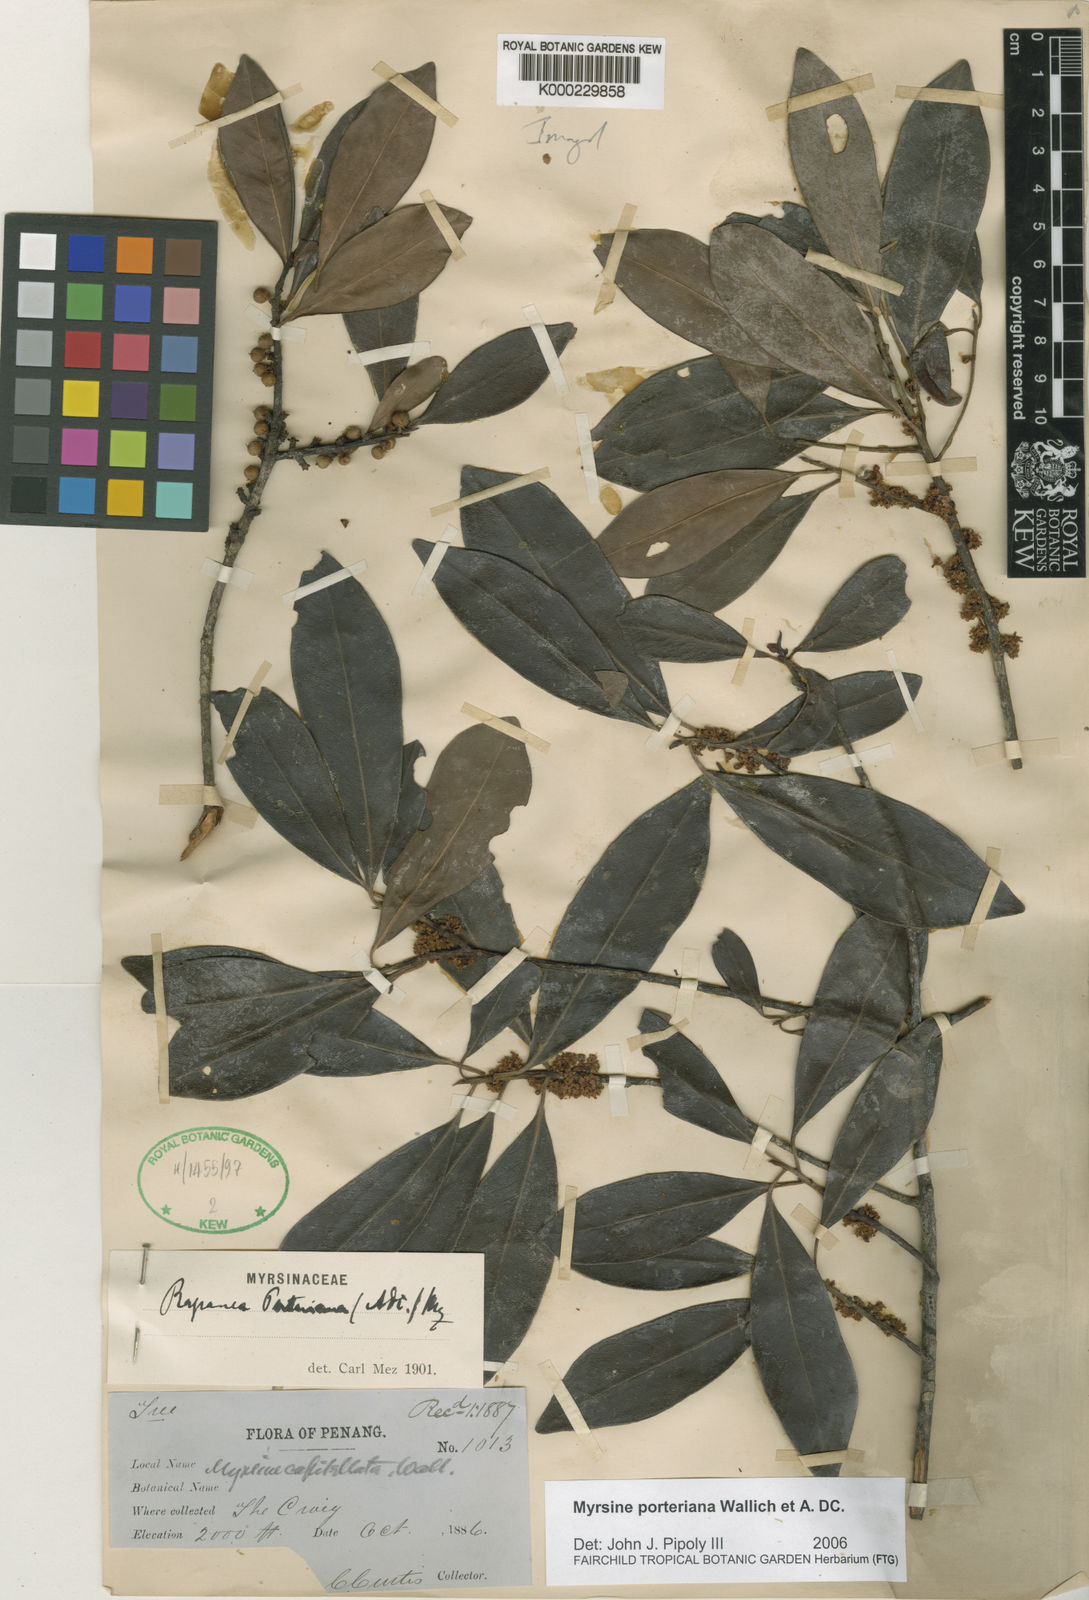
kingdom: Plantae
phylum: Tracheophyta
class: Magnoliopsida
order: Ericales
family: Primulaceae
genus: Myrsine
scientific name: Myrsine porteriana
